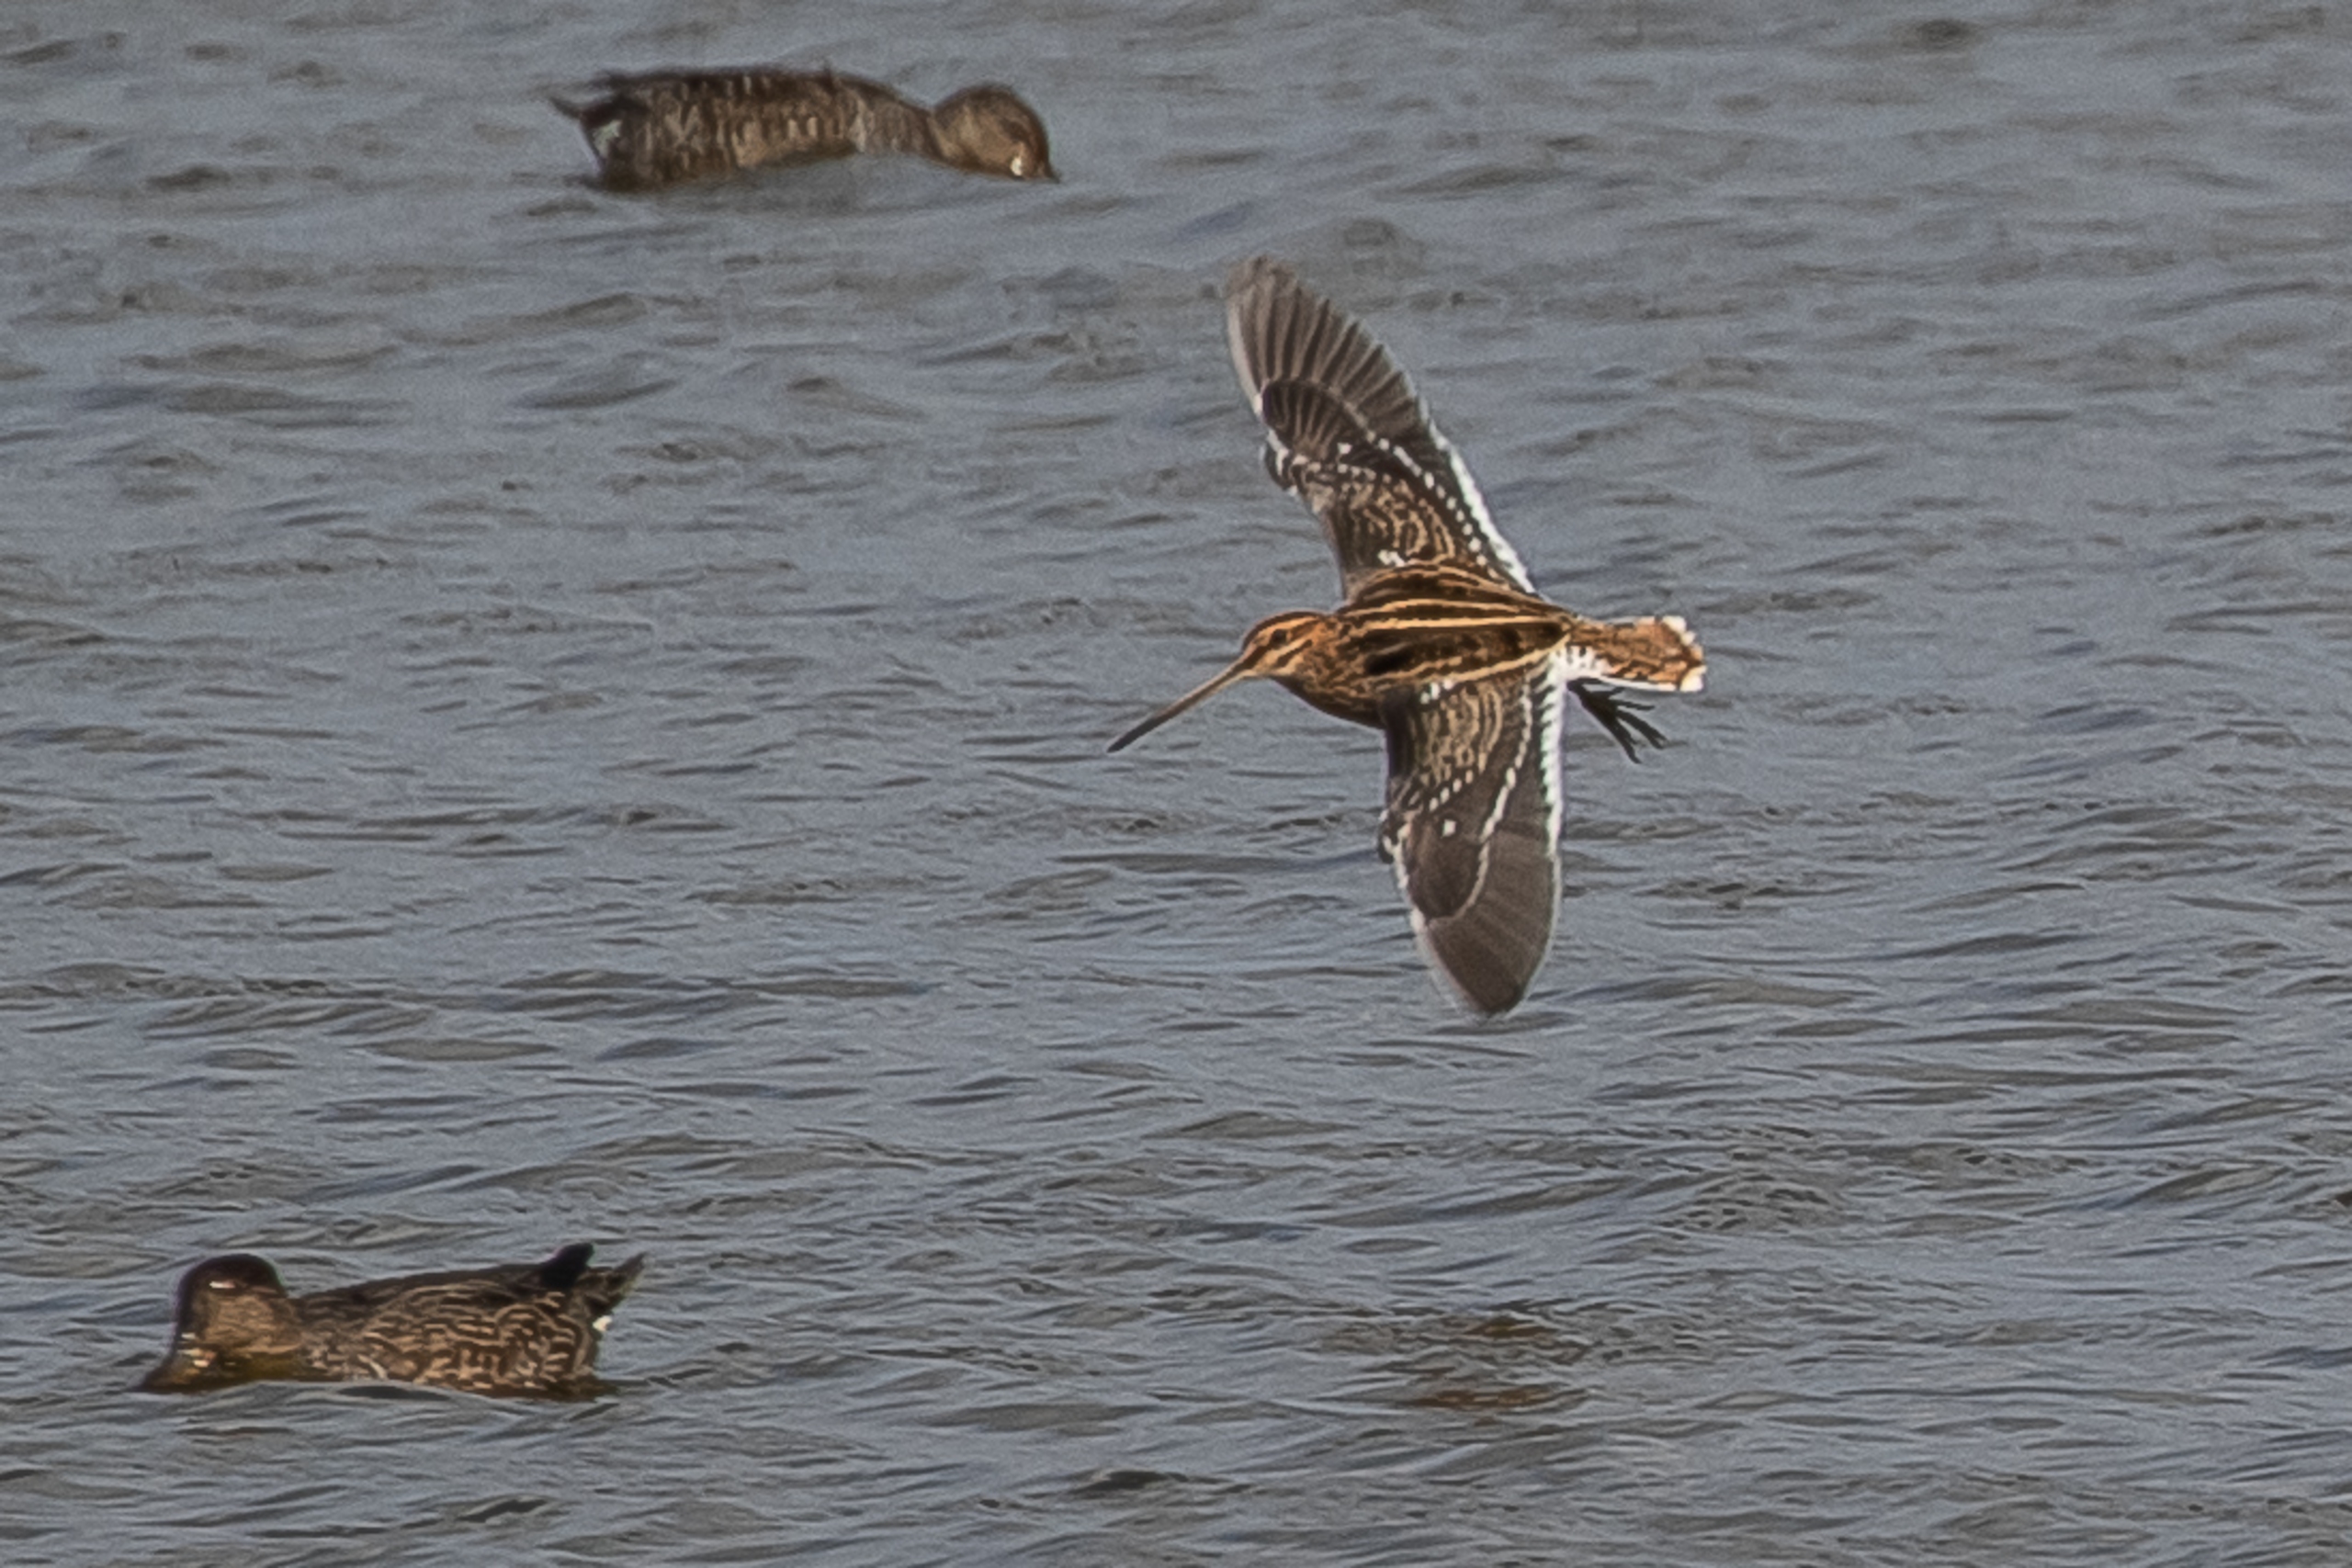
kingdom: Animalia
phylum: Chordata
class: Aves
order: Charadriiformes
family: Scolopacidae
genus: Gallinago
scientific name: Gallinago gallinago
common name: Dobbeltbekkasin
